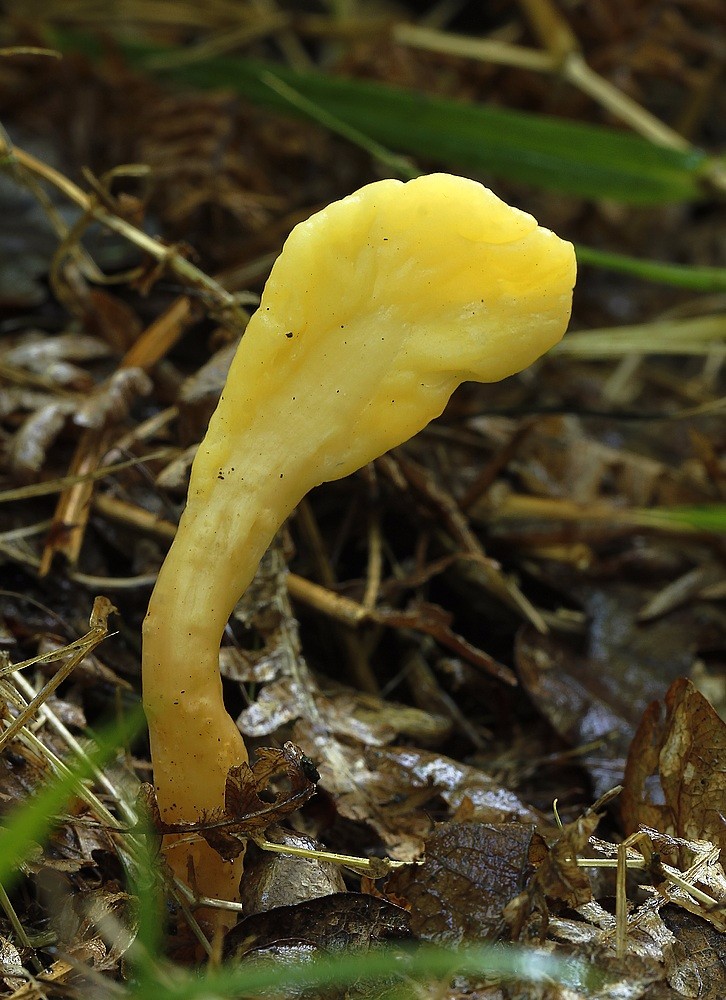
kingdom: Fungi
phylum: Ascomycota
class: Leotiomycetes
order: Rhytismatales
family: Cudoniaceae
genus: Spathularia
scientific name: Spathularia flavida
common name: gul spatelsvamp
